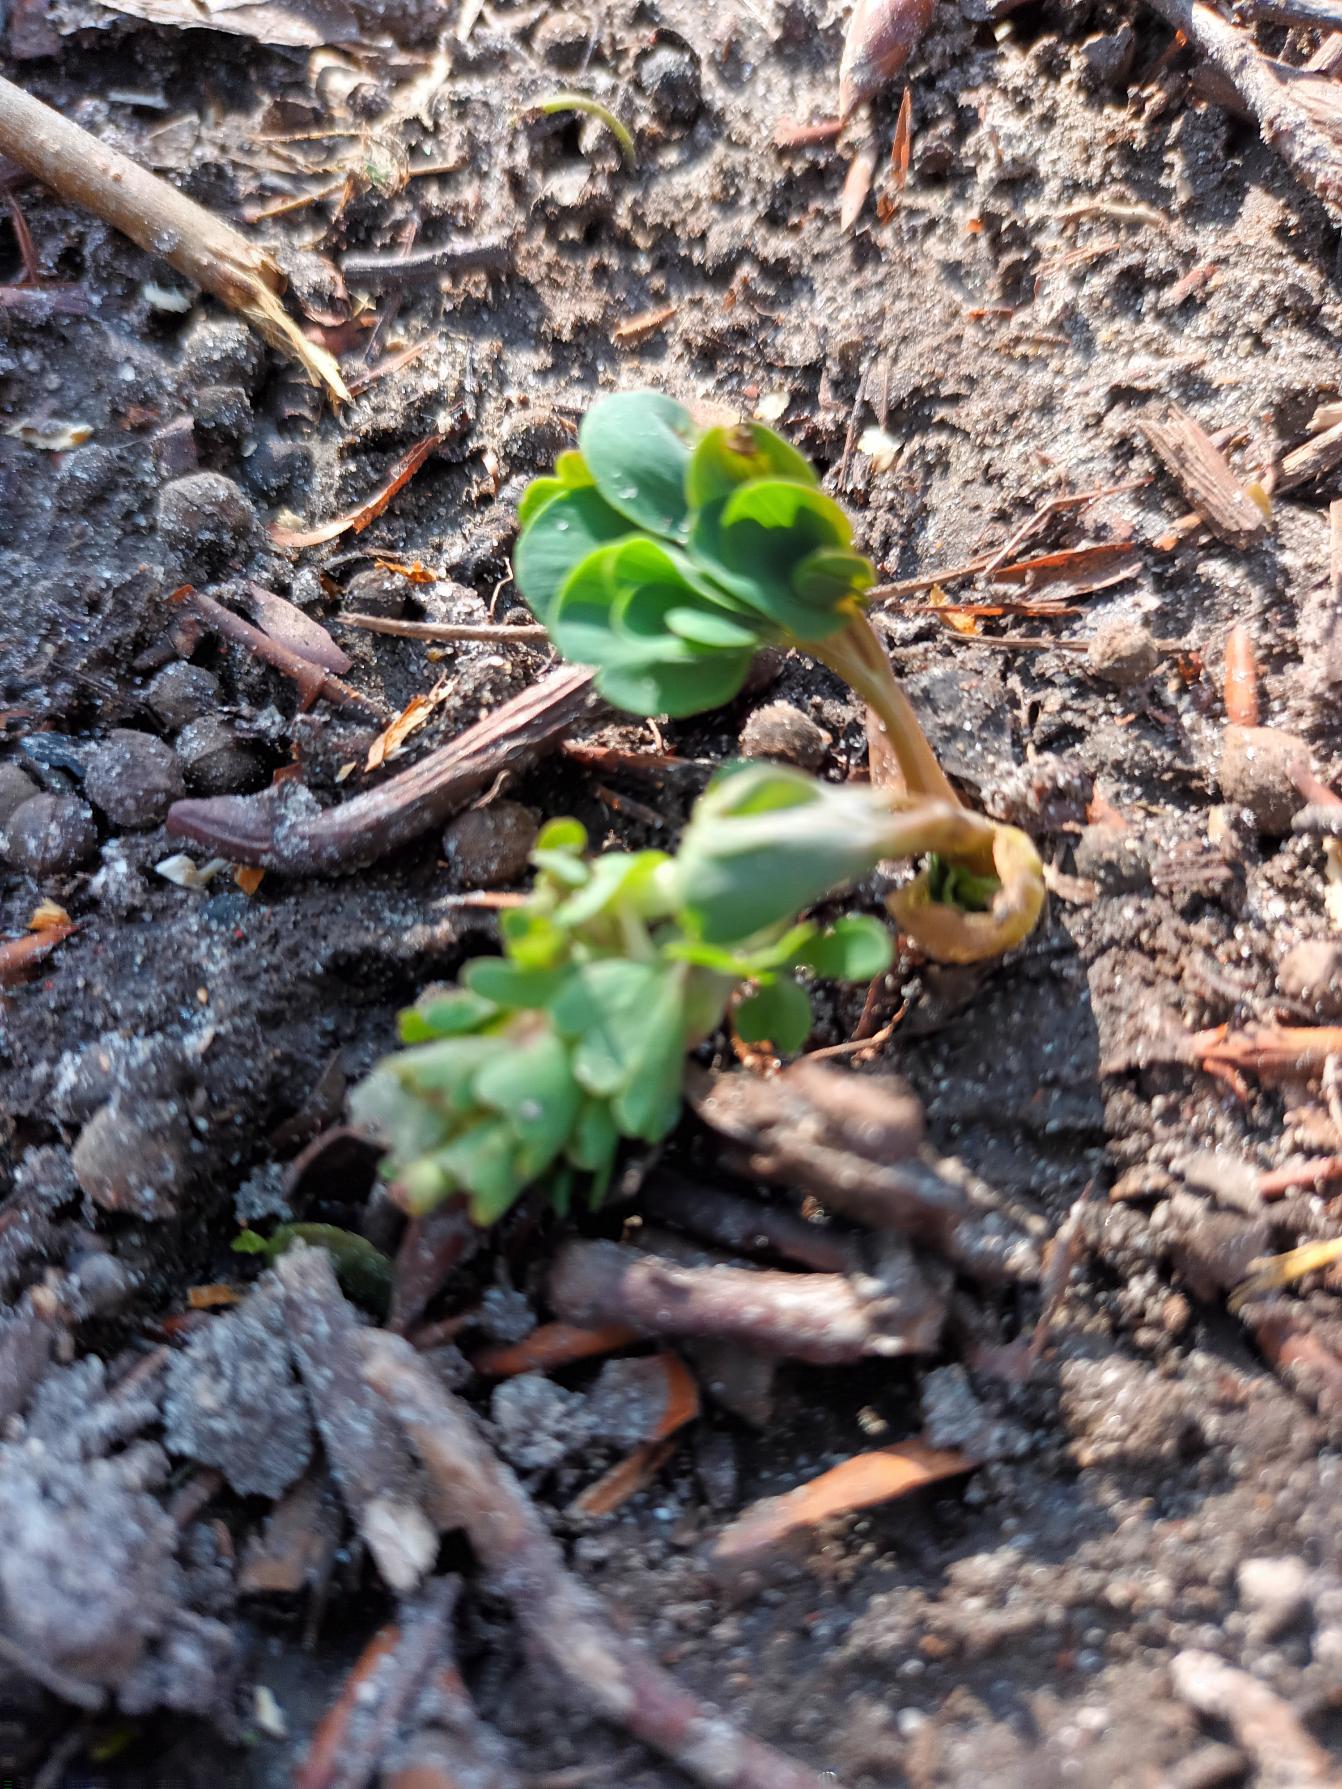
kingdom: Plantae
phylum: Tracheophyta
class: Magnoliopsida
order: Ranunculales
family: Papaveraceae
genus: Corydalis
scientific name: Corydalis pumila
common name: Finger-lærkespore
